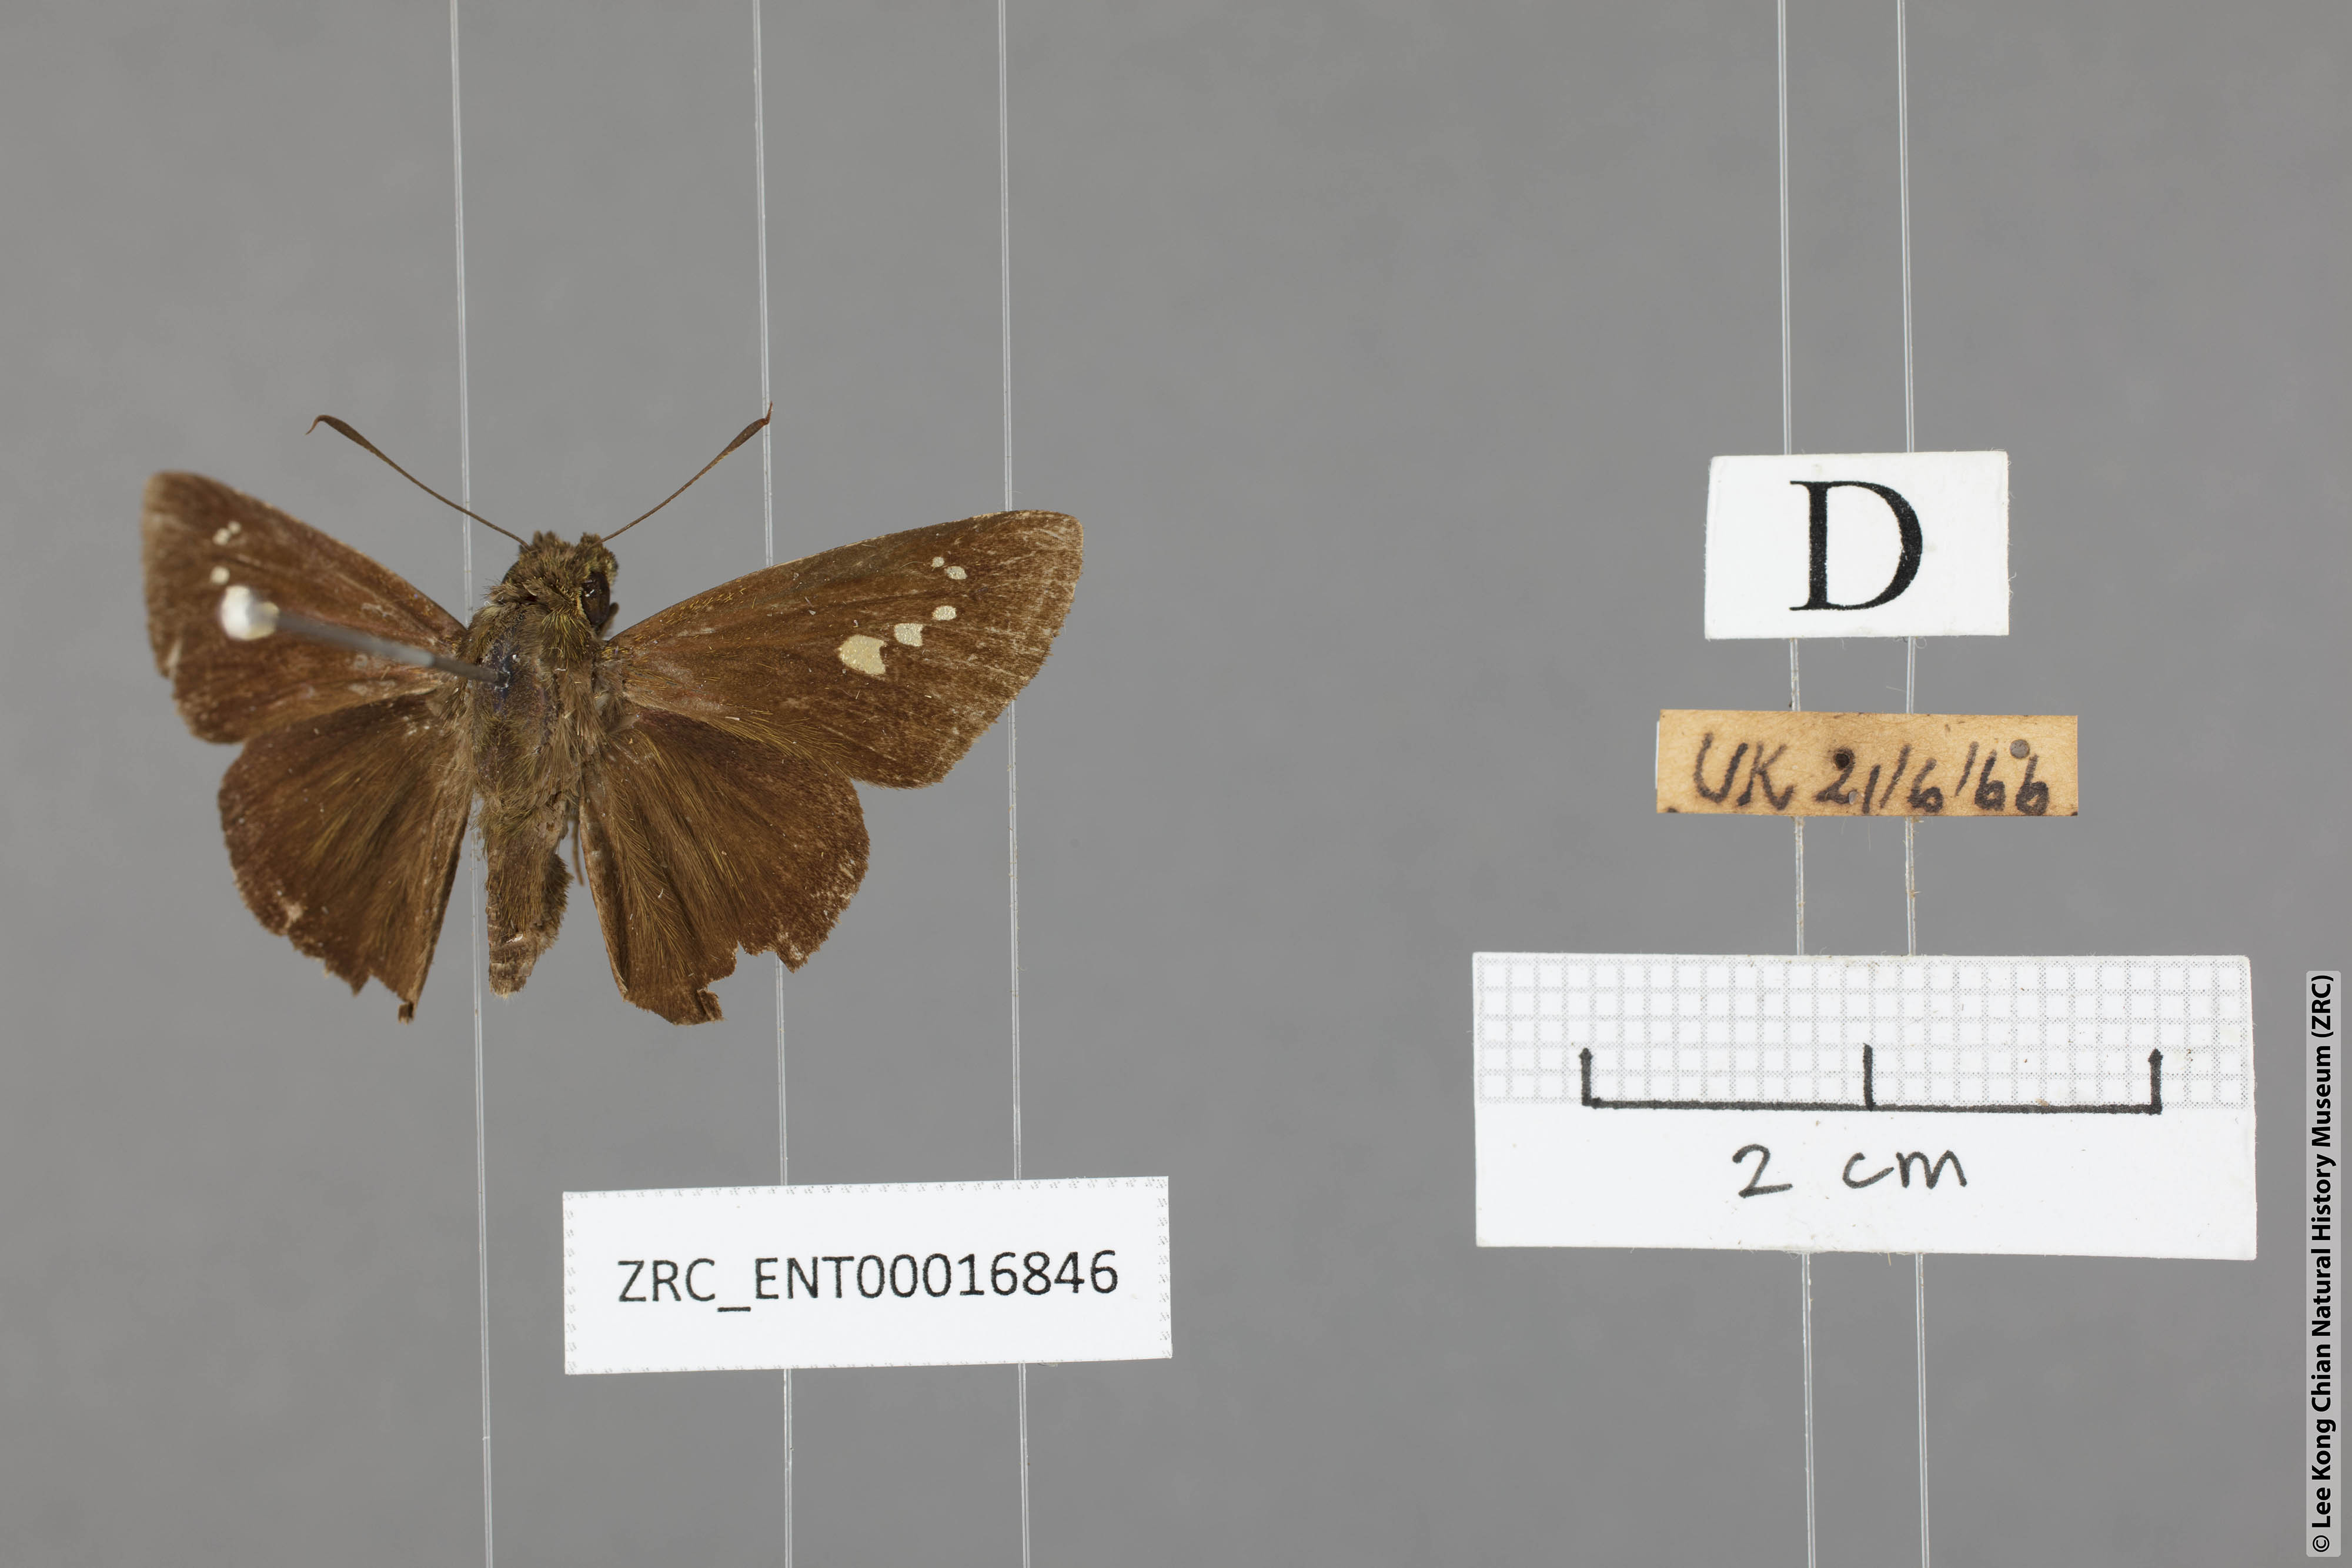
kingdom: Animalia
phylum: Arthropoda
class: Insecta
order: Lepidoptera
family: Hesperiidae
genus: Caltoris
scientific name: Caltoris malaya
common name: Malayan swift
